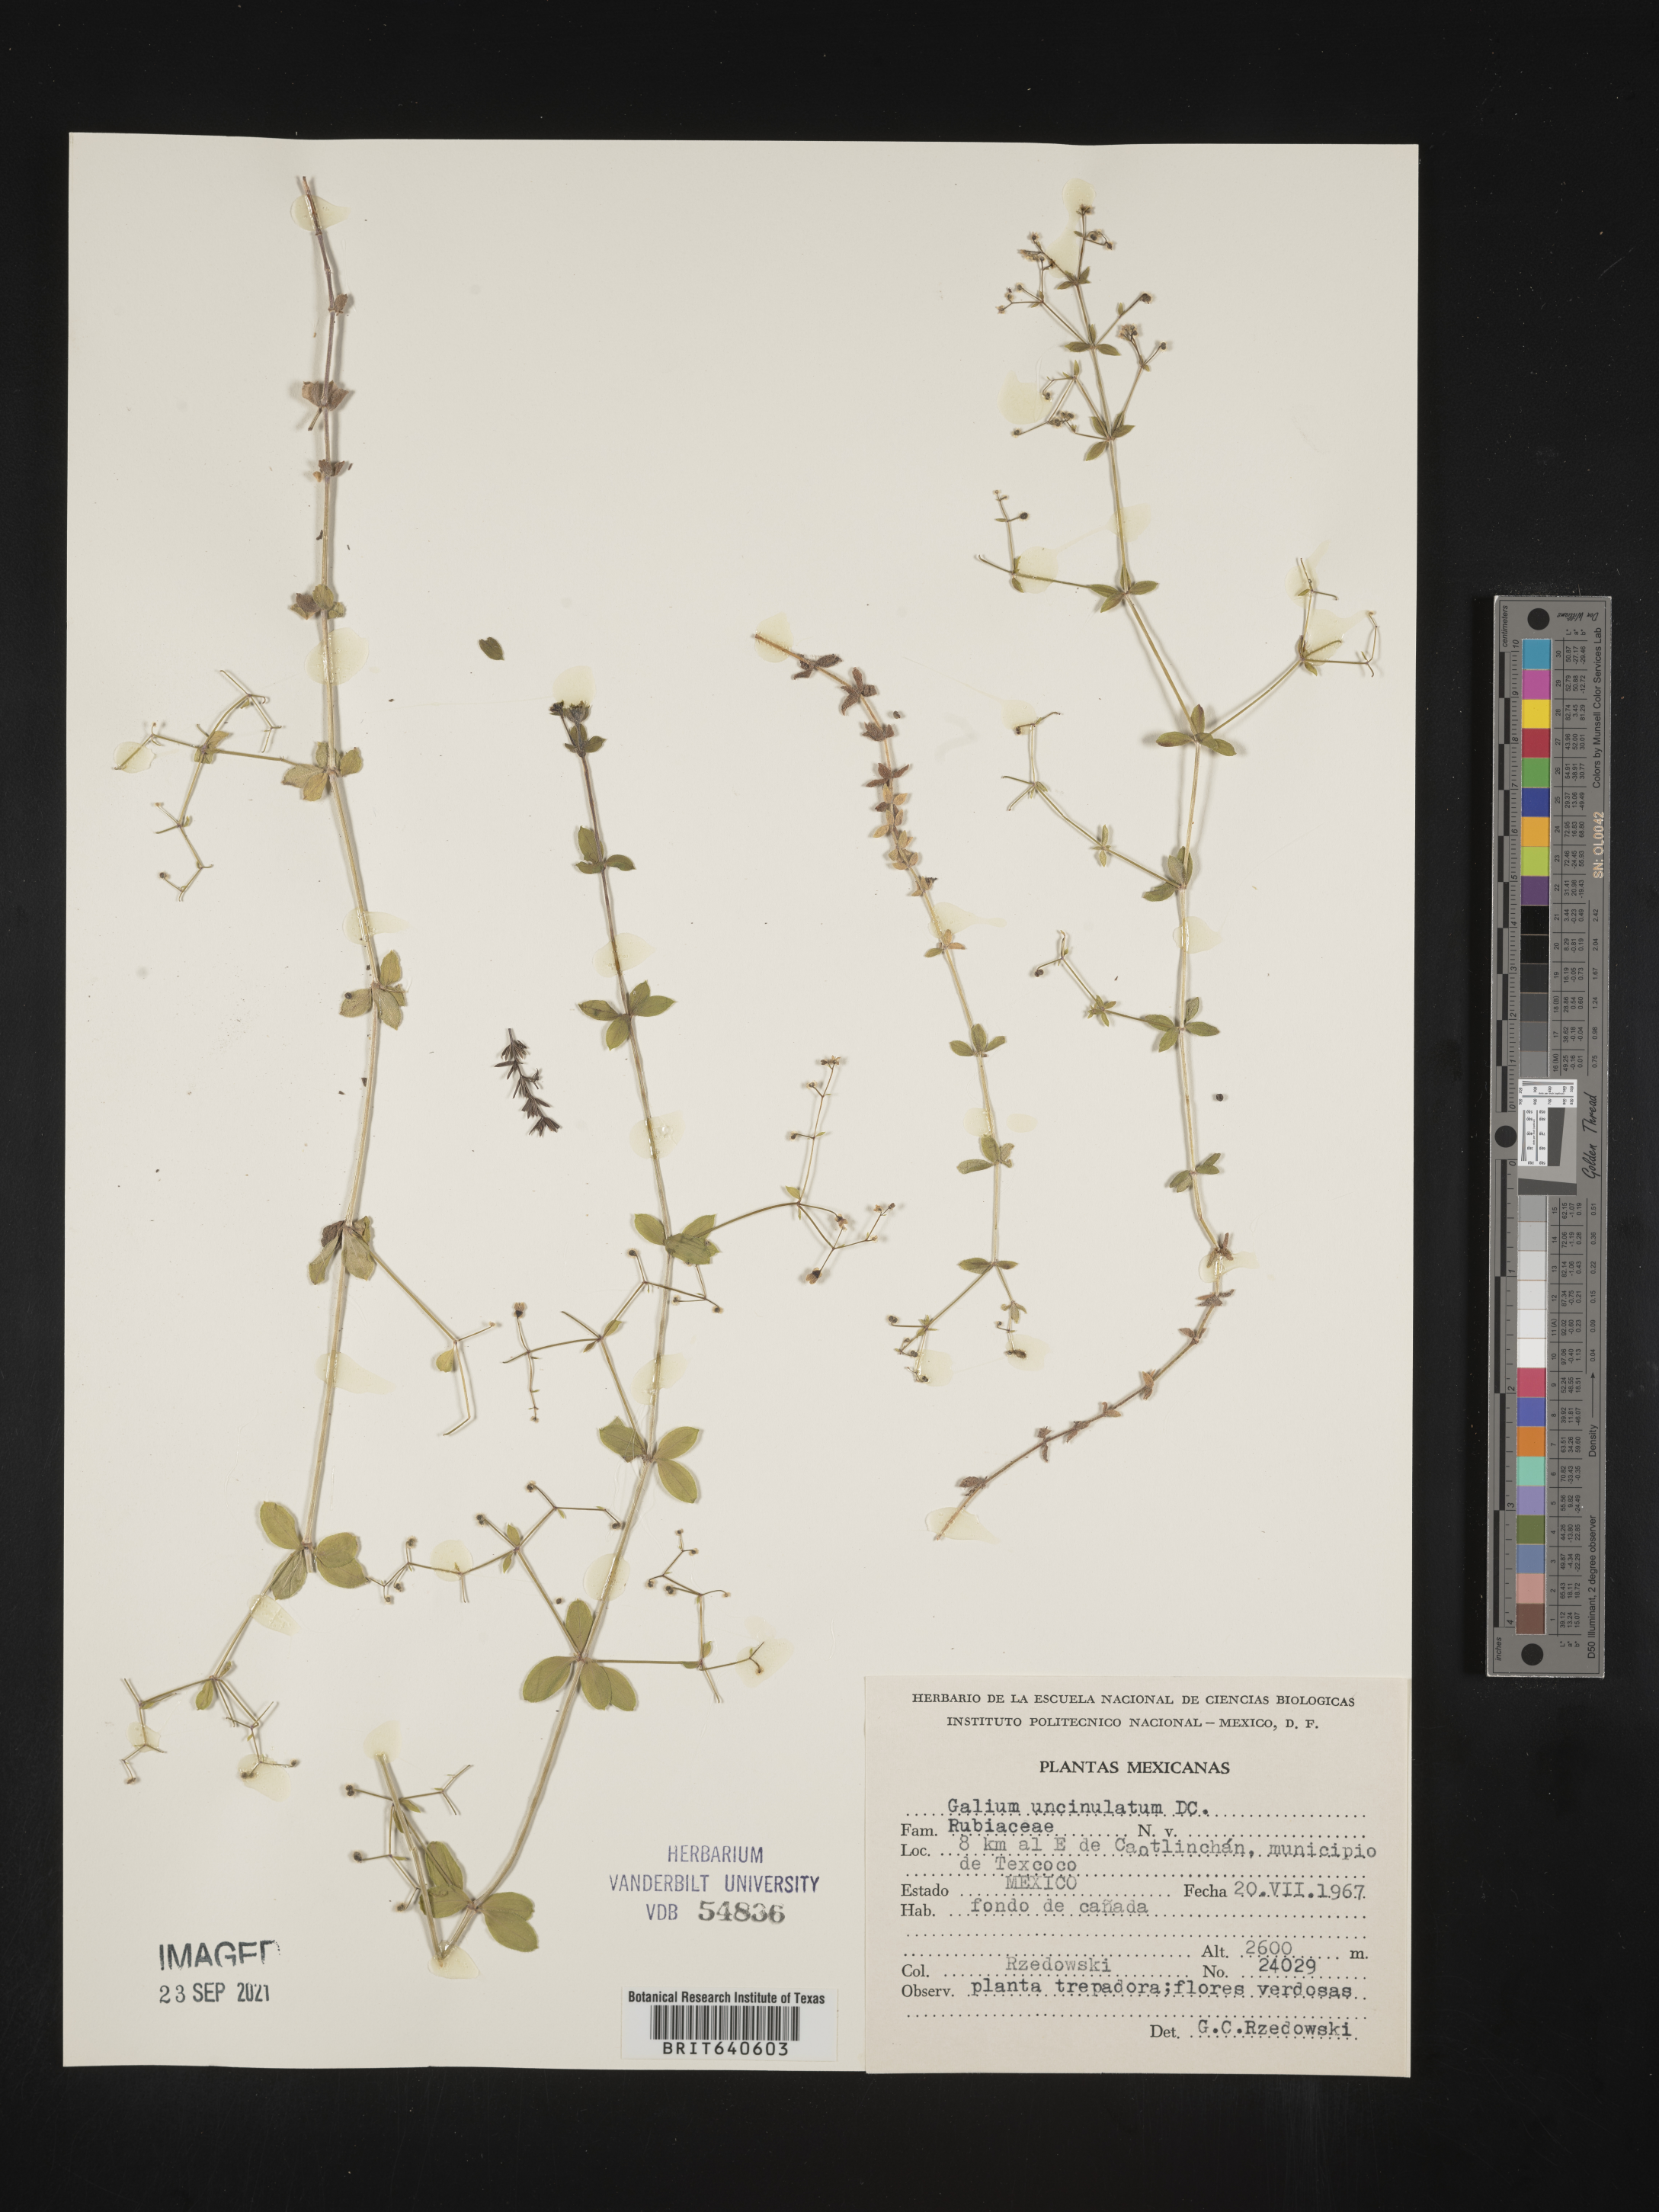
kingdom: Plantae
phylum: Tracheophyta
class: Magnoliopsida
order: Gentianales
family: Rubiaceae
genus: Galium
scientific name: Galium
